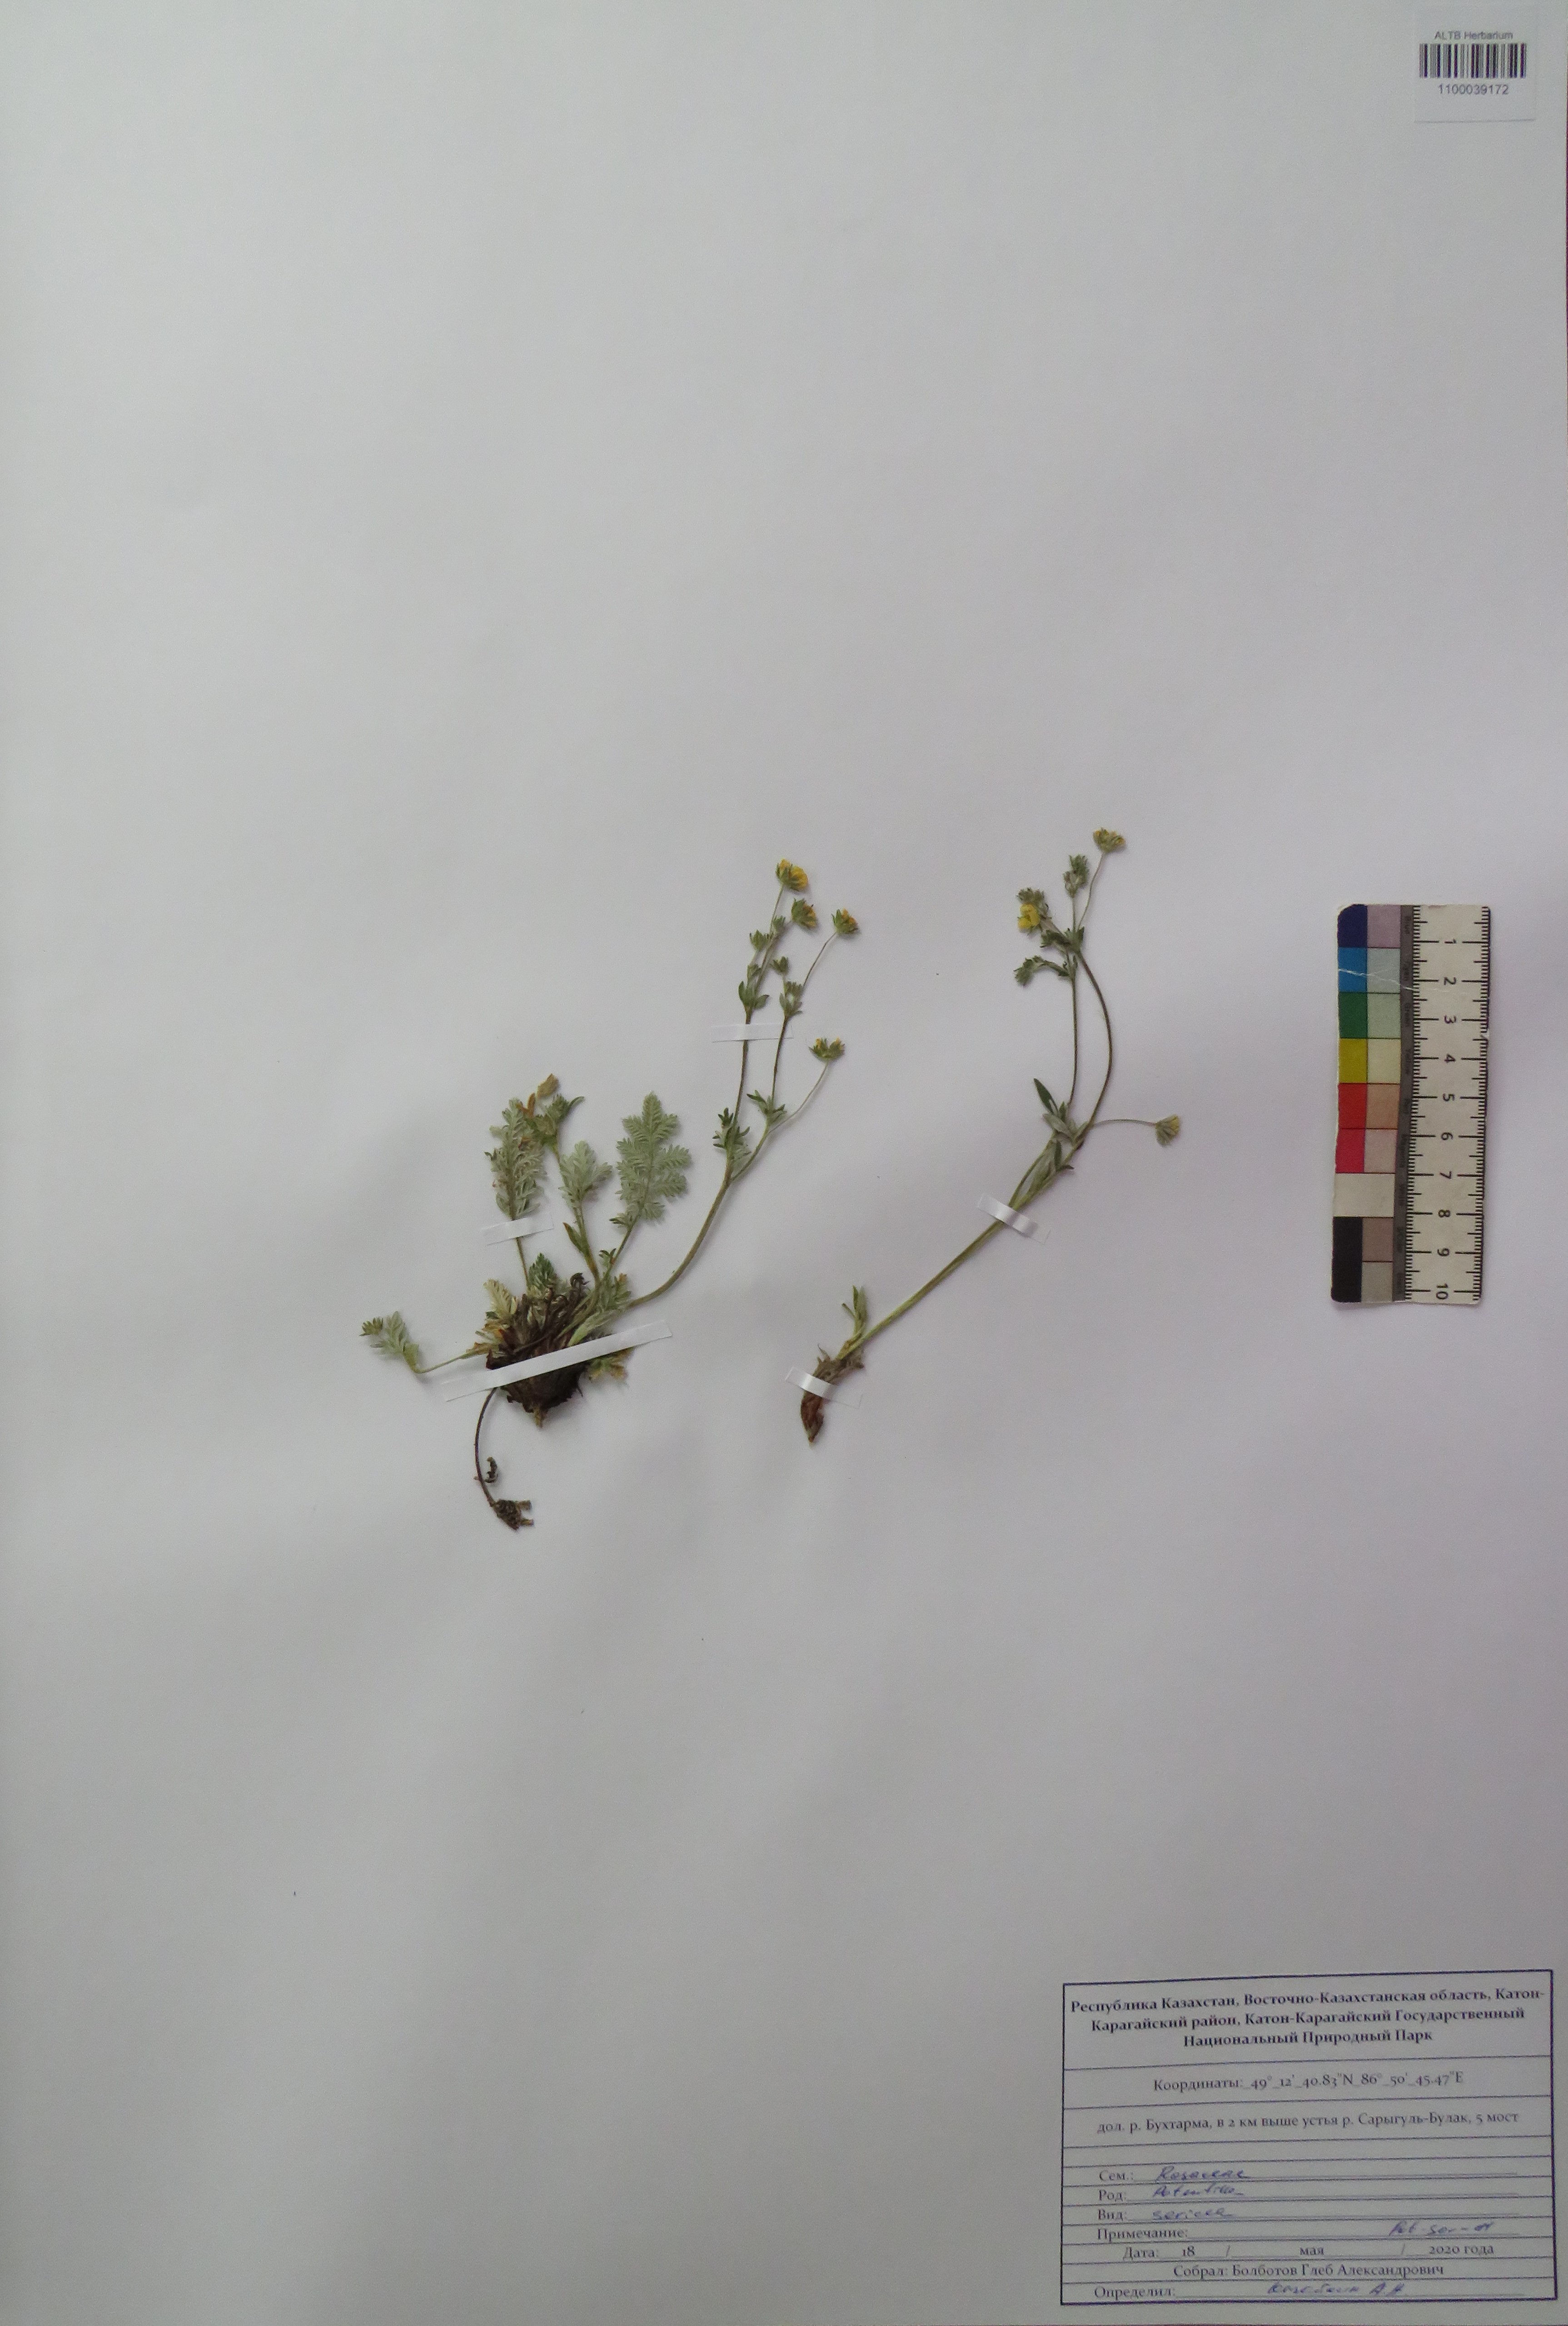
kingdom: Plantae
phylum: Tracheophyta
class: Magnoliopsida
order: Rosales
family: Rosaceae
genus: Potentilla
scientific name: Potentilla sericea
